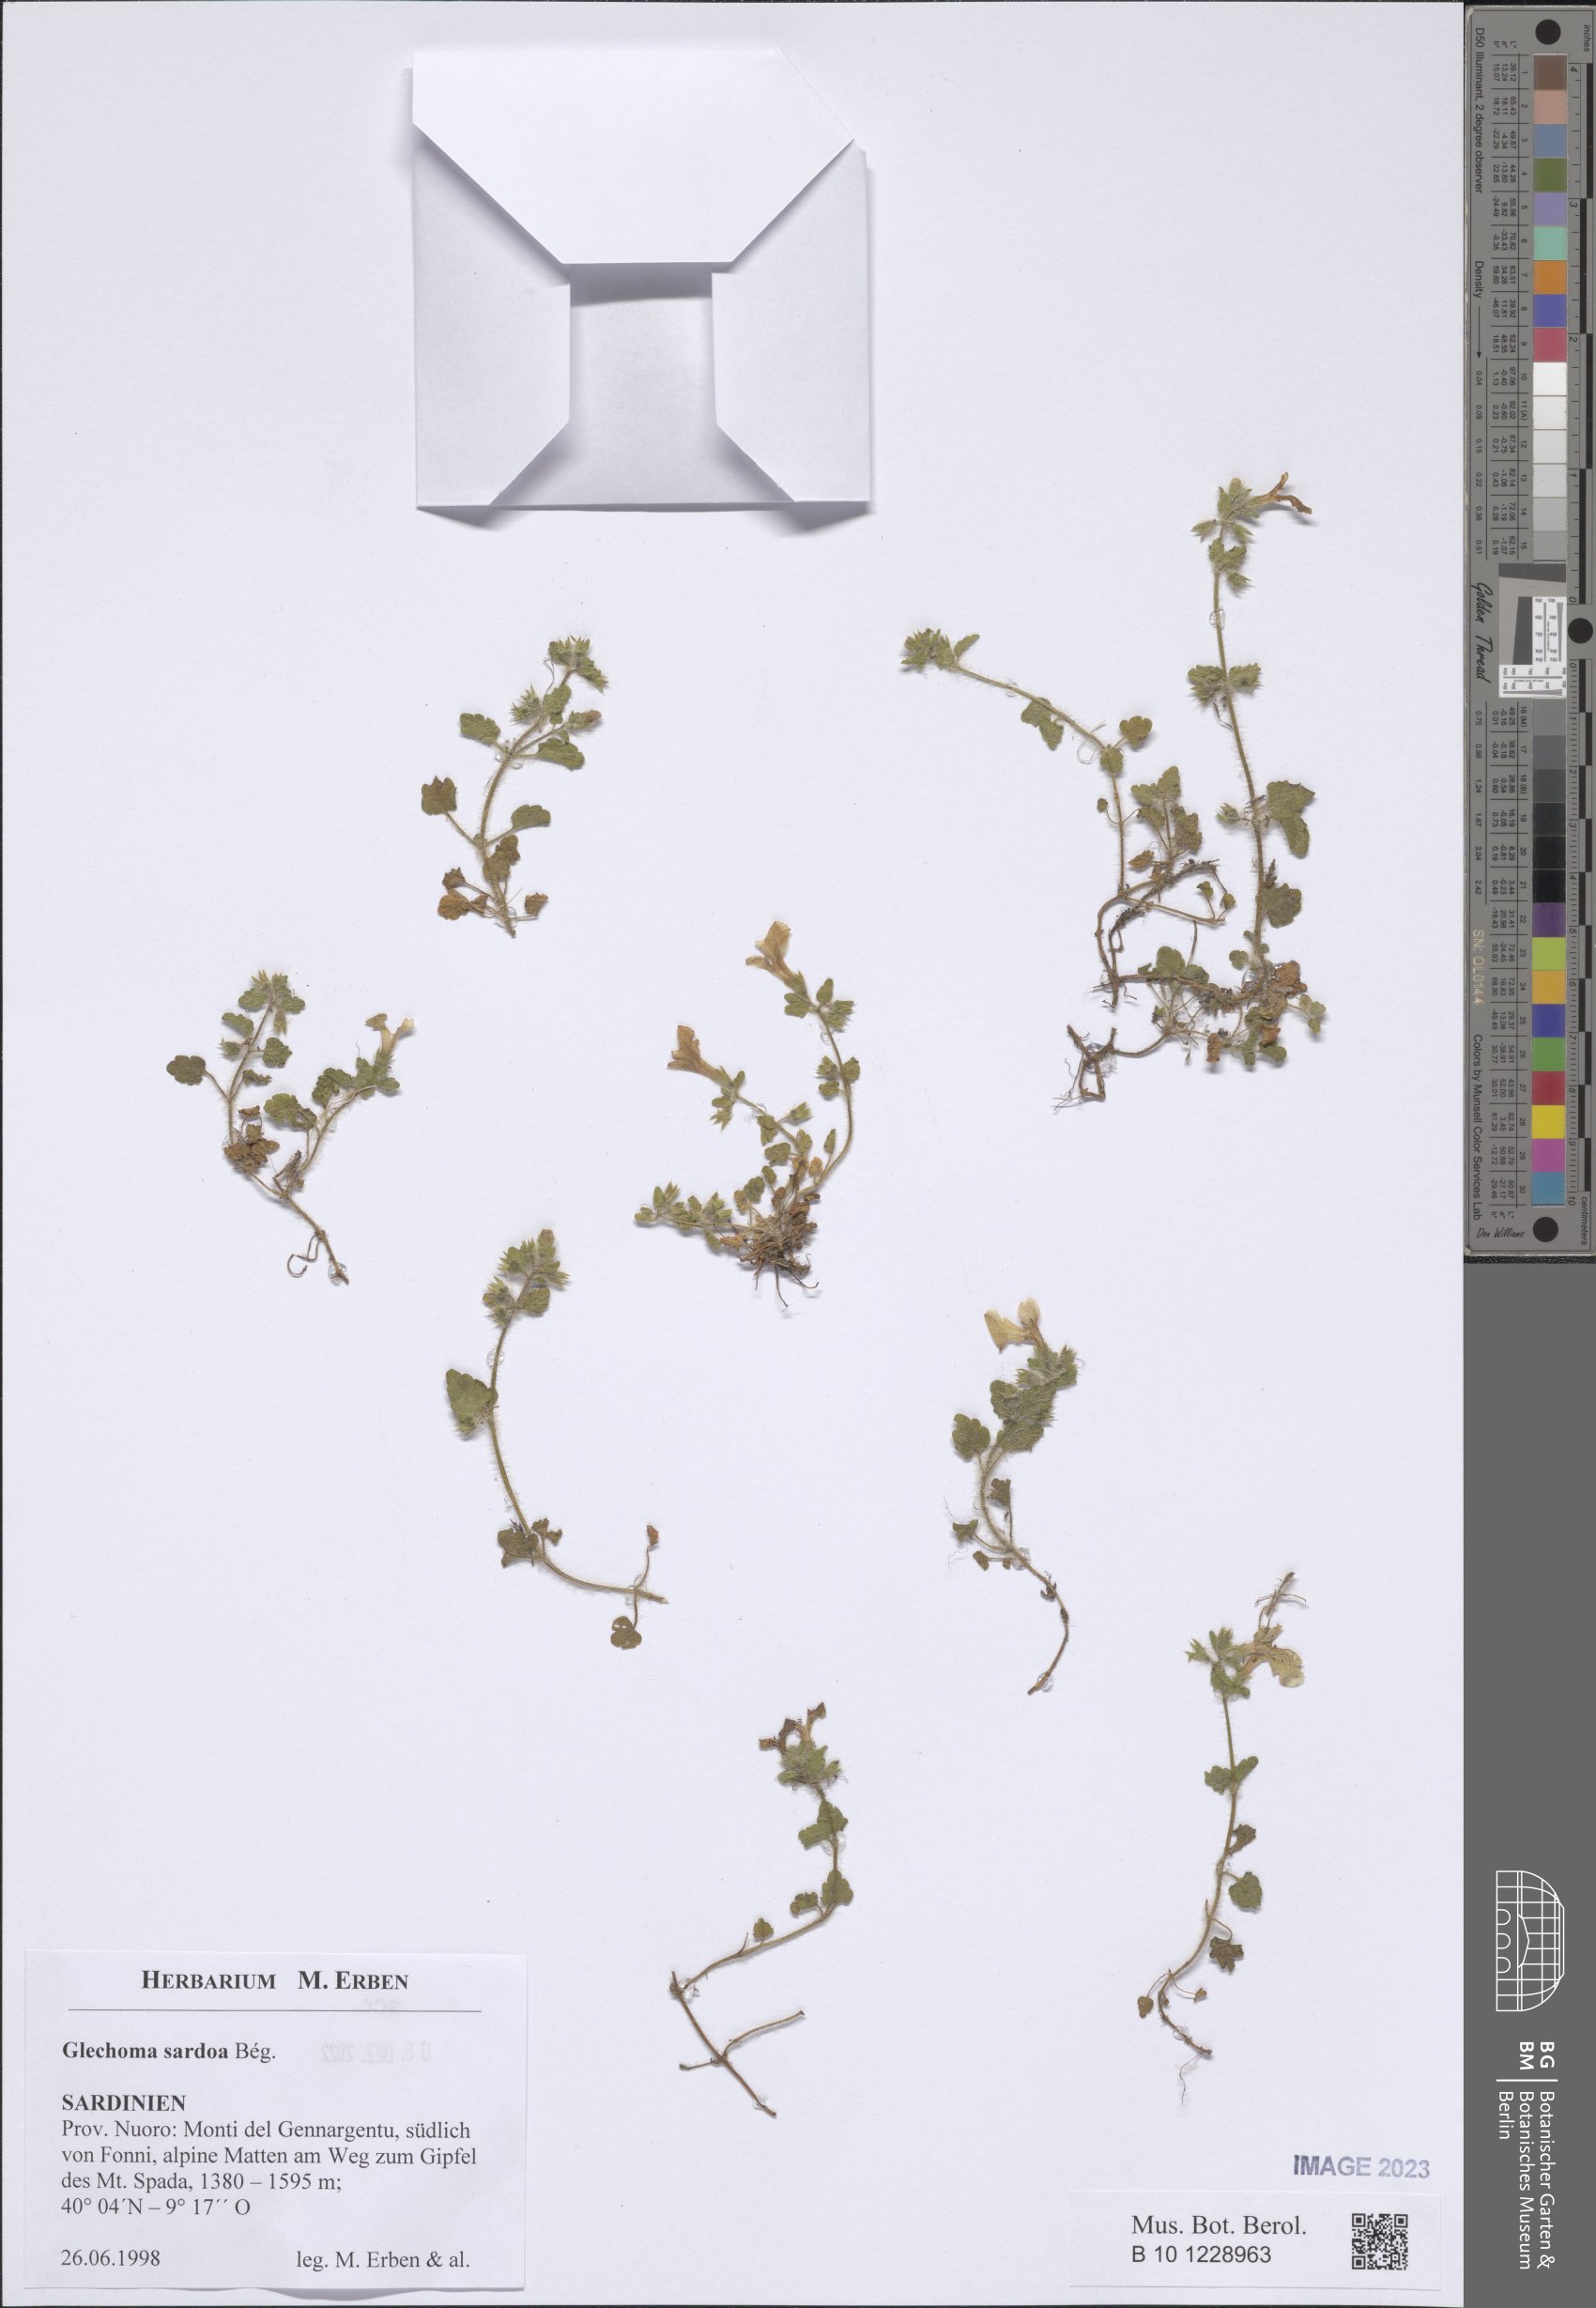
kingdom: Plantae
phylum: Tracheophyta
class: Magnoliopsida
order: Lamiales
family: Lamiaceae
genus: Glechoma
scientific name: Glechoma sardoa
